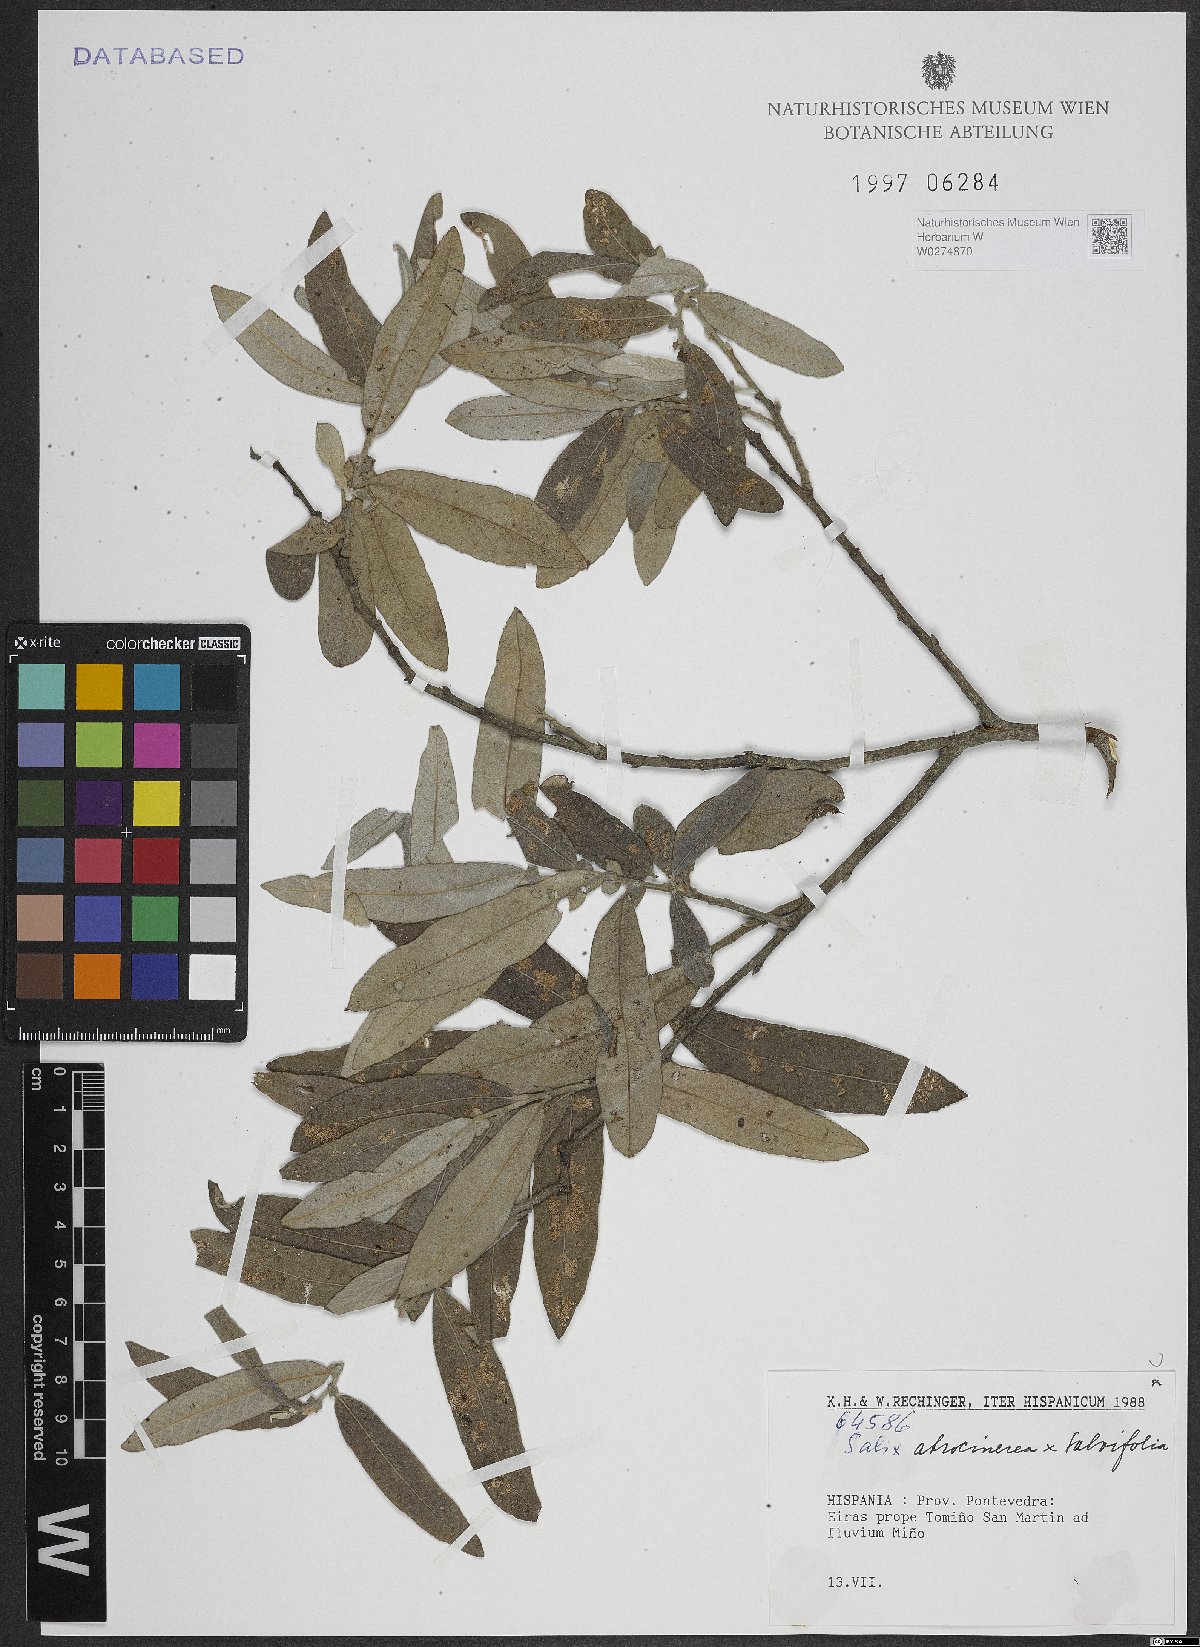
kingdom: Plantae
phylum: Tracheophyta
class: Magnoliopsida
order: Malpighiales
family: Salicaceae
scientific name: Salicaceae
